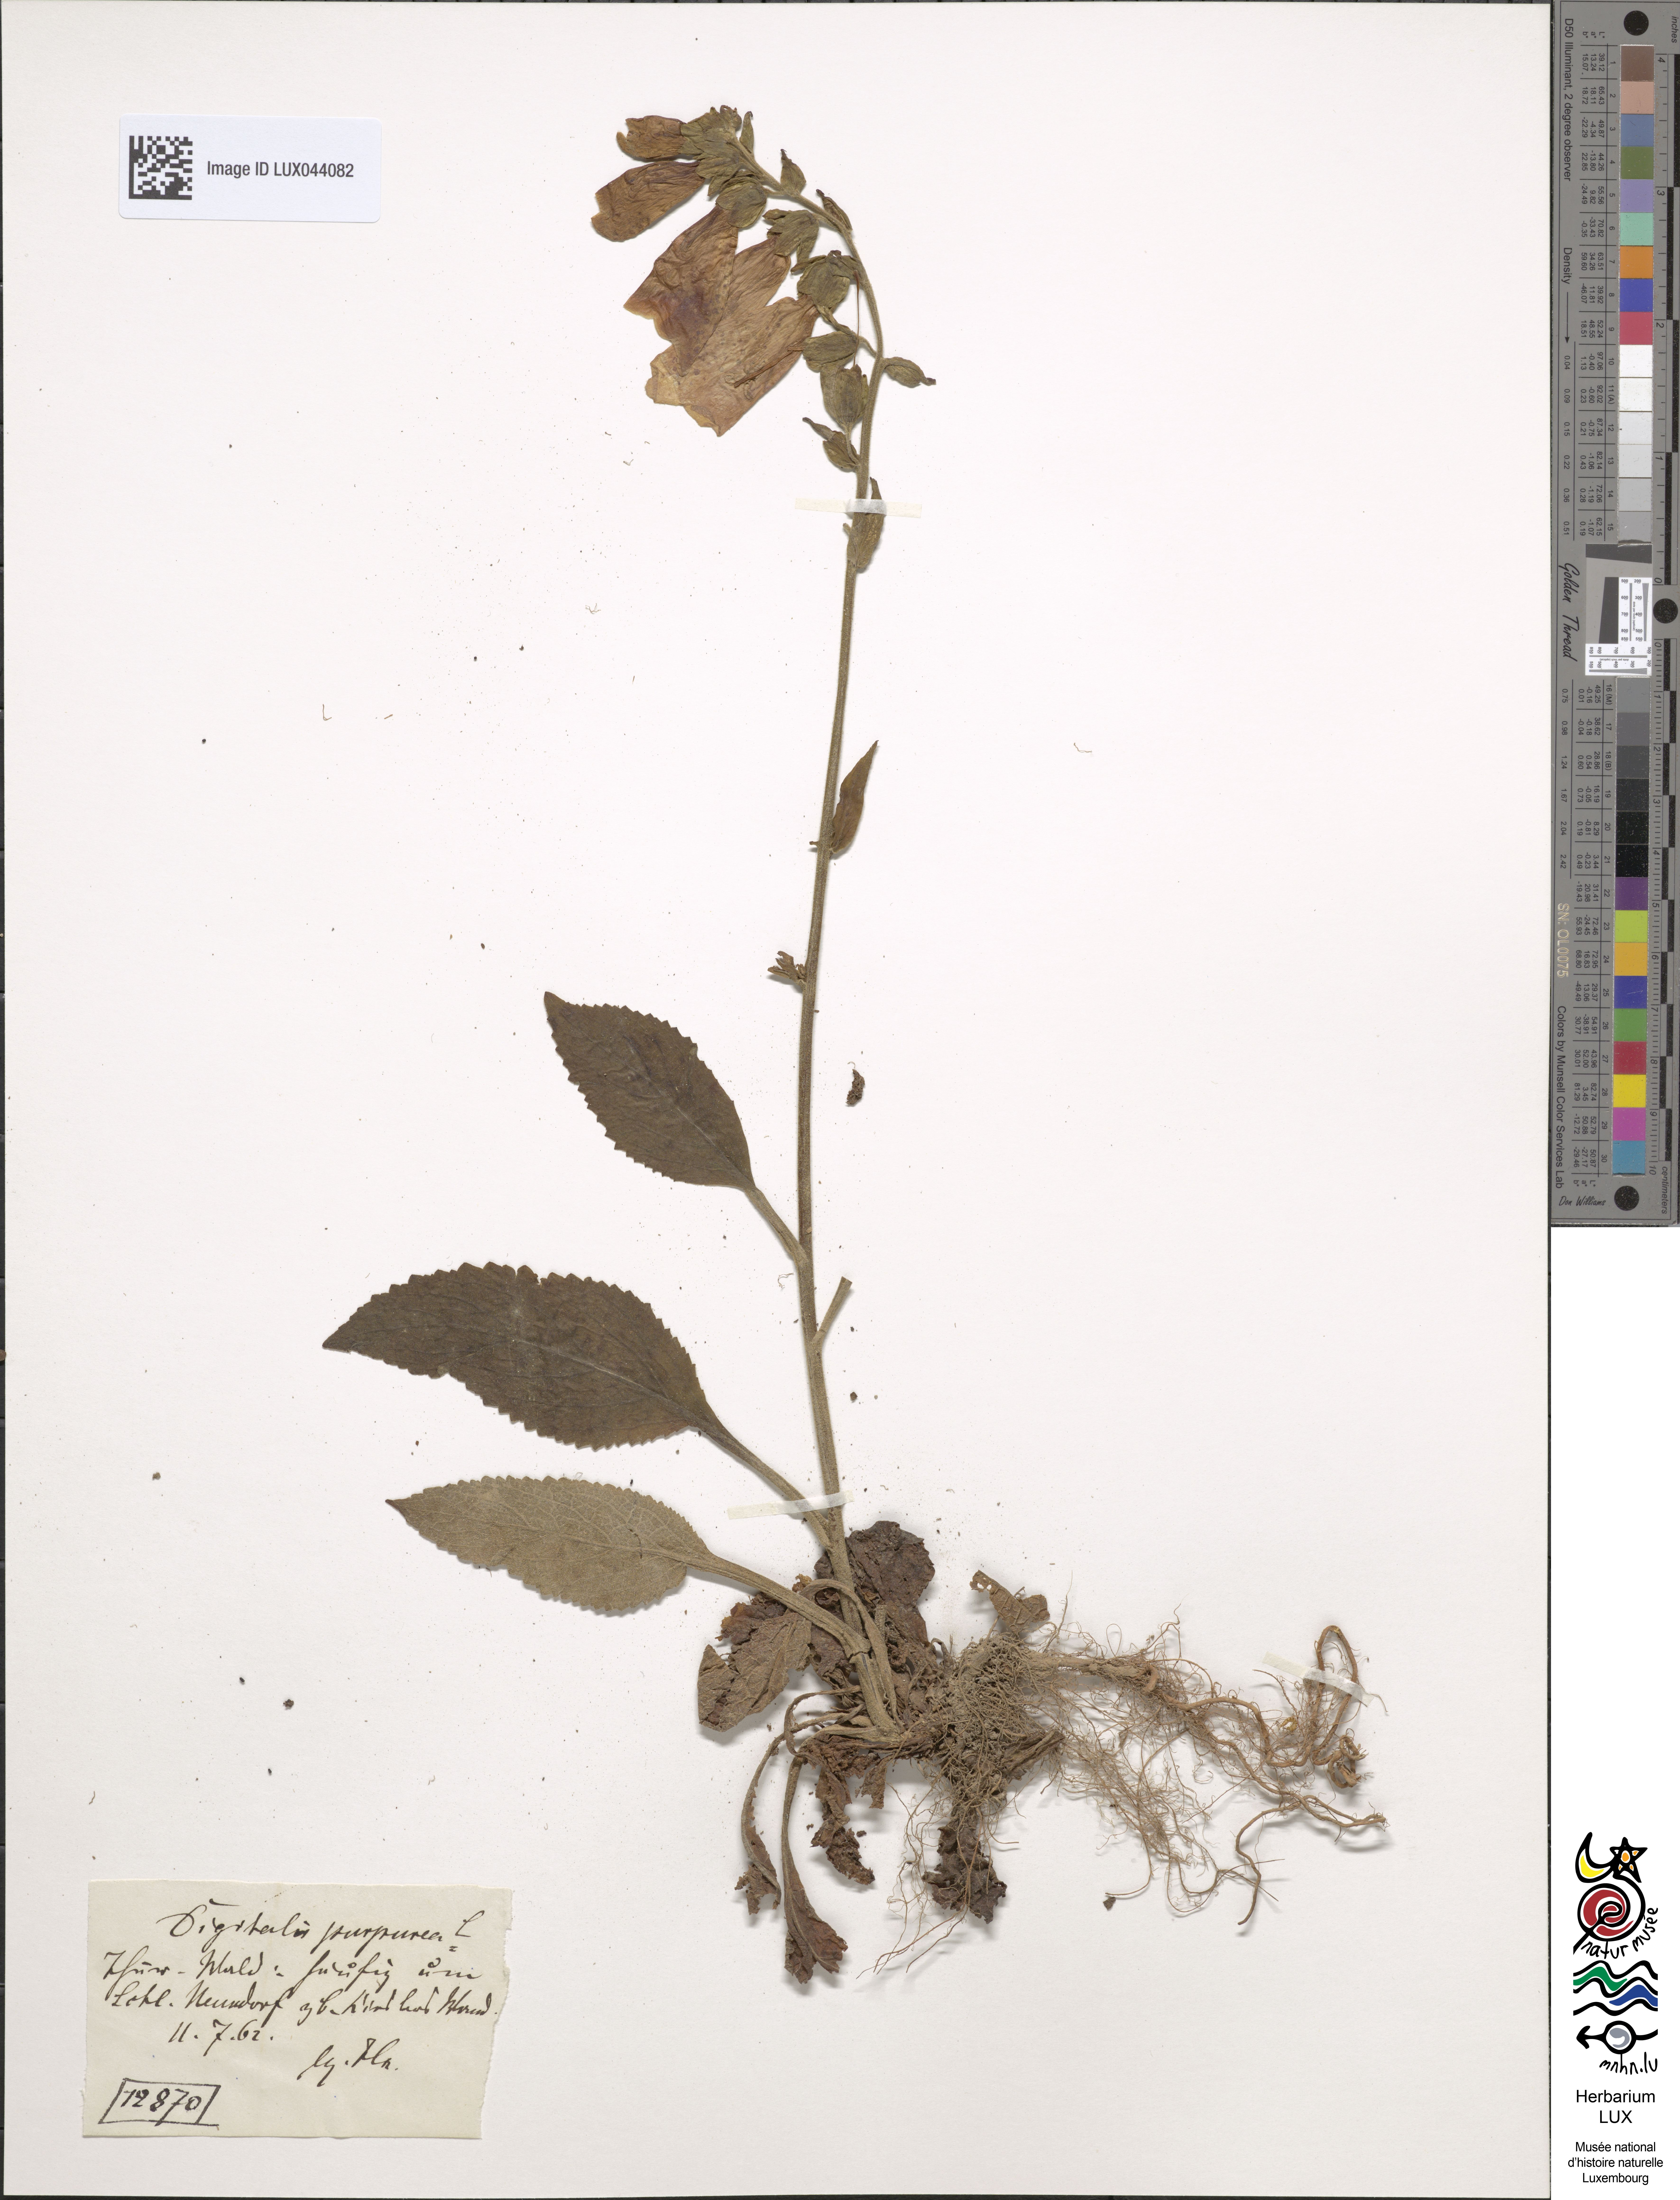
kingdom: Plantae
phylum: Tracheophyta
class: Magnoliopsida
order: Lamiales
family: Plantaginaceae
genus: Digitalis
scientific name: Digitalis purpurea
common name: Foxglove
